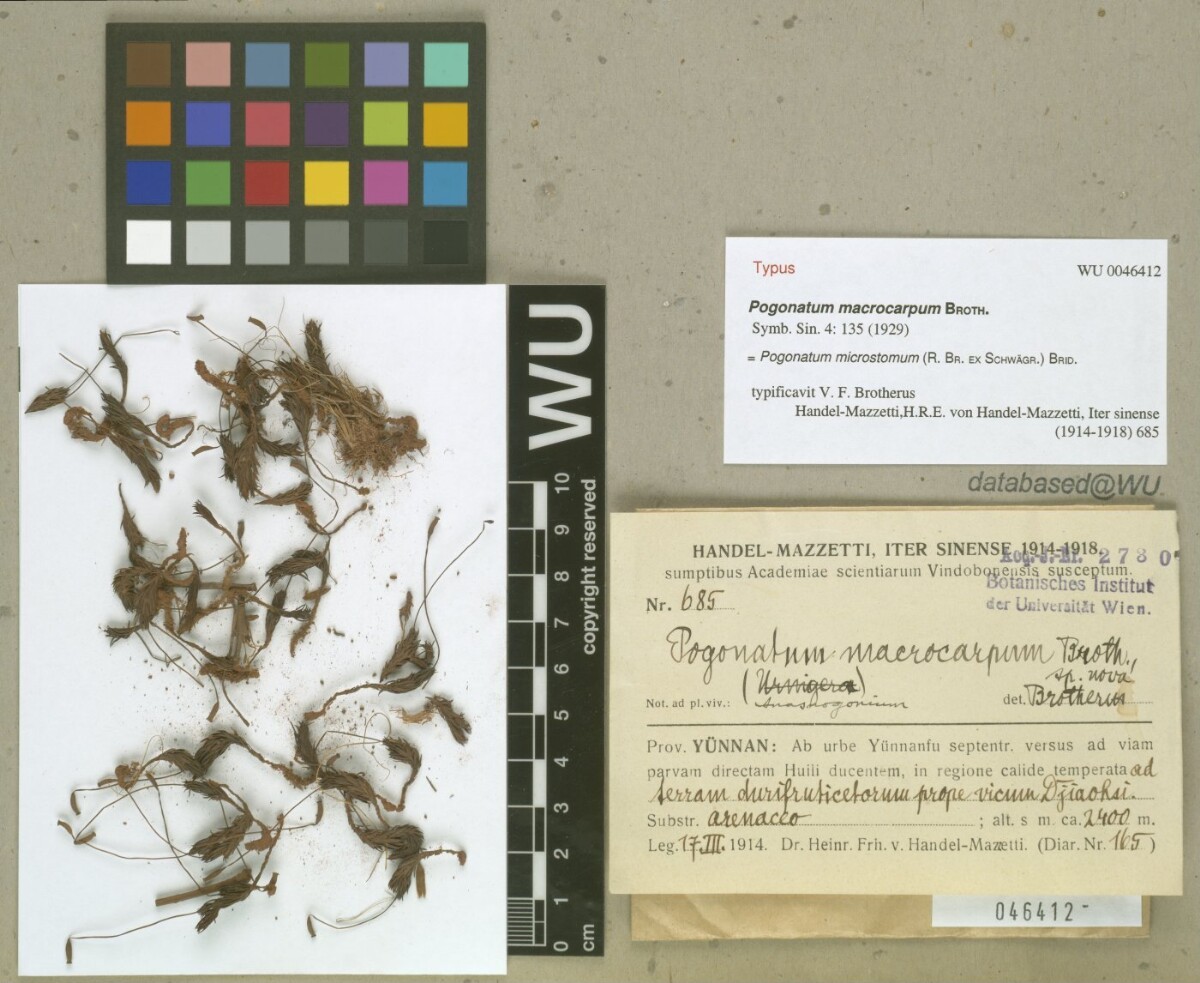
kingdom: Plantae
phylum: Bryophyta
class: Polytrichopsida
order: Polytrichales
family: Polytrichaceae
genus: Pogonatum
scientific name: Pogonatum microstomum
